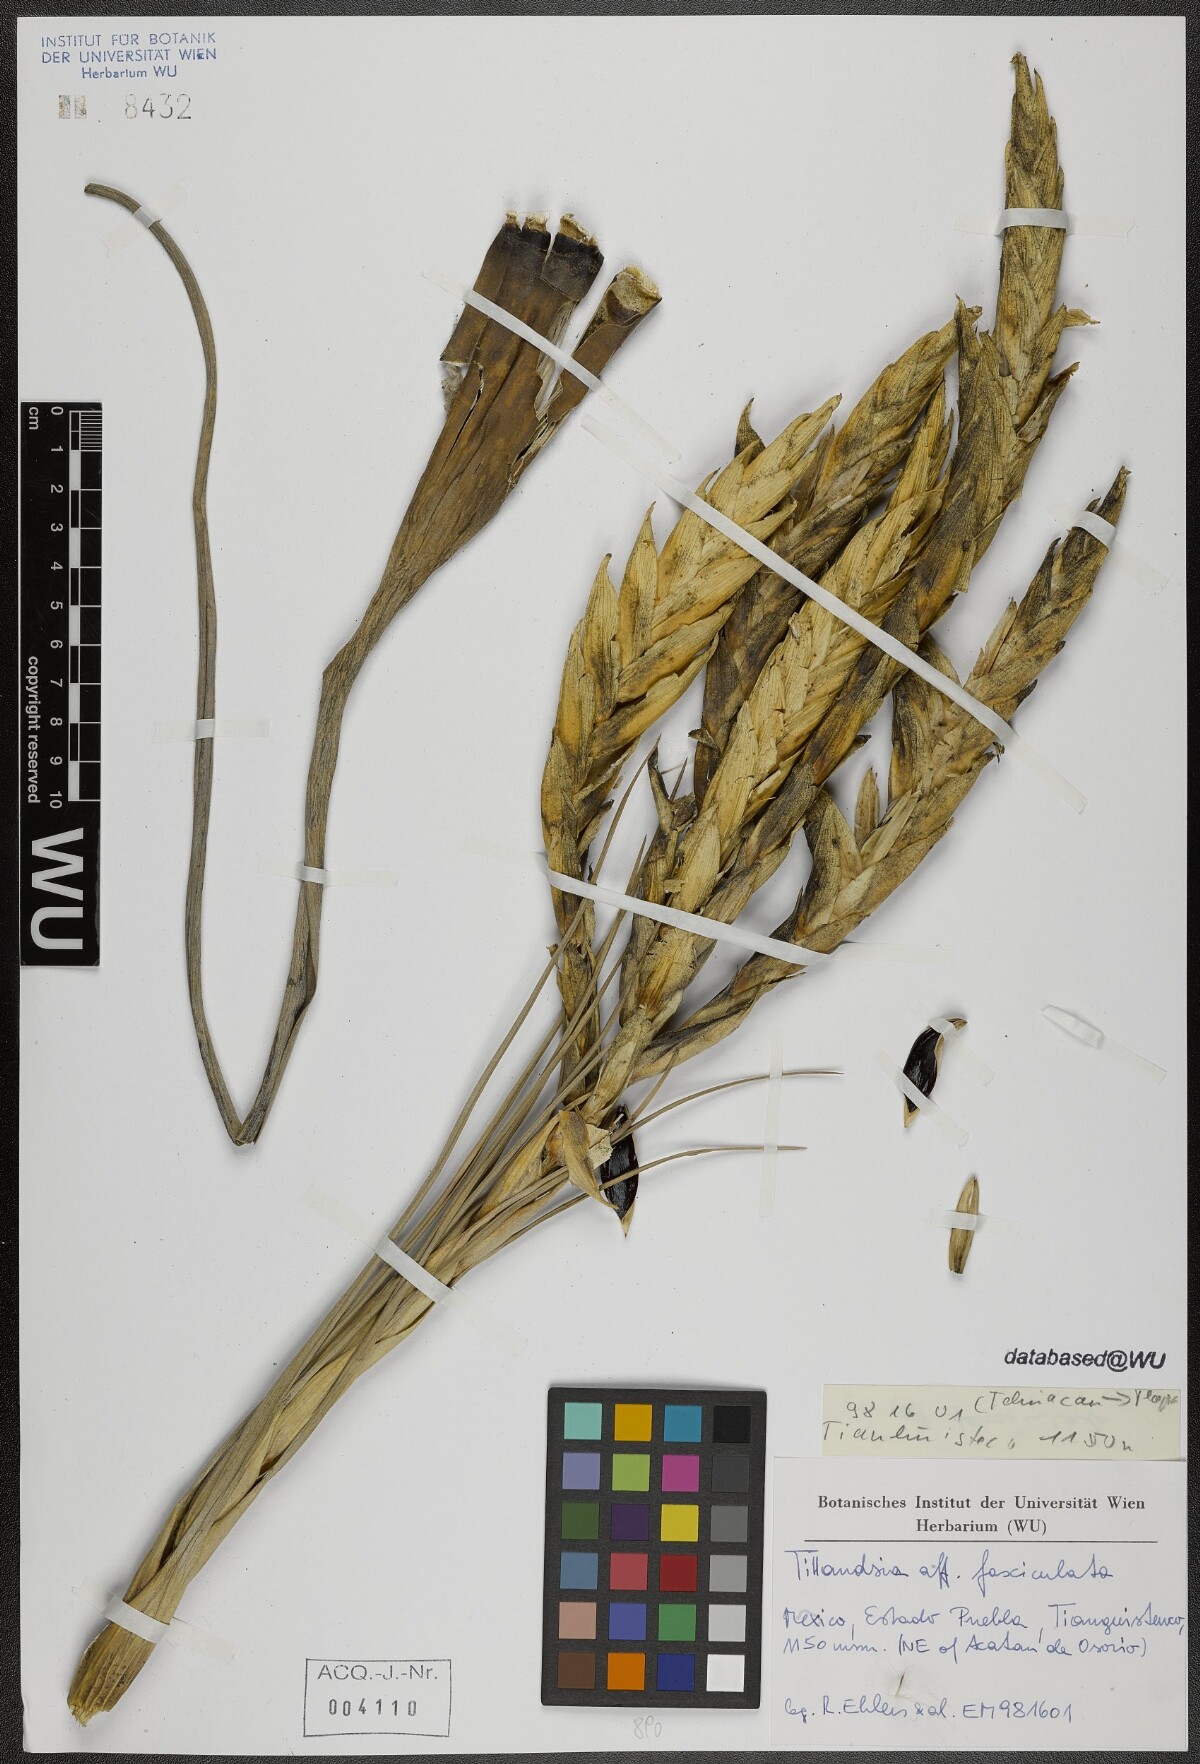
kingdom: Plantae
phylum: Tracheophyta
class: Liliopsida
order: Poales
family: Bromeliaceae
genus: Tillandsia
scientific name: Tillandsia fasciculata
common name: Giant airplant
